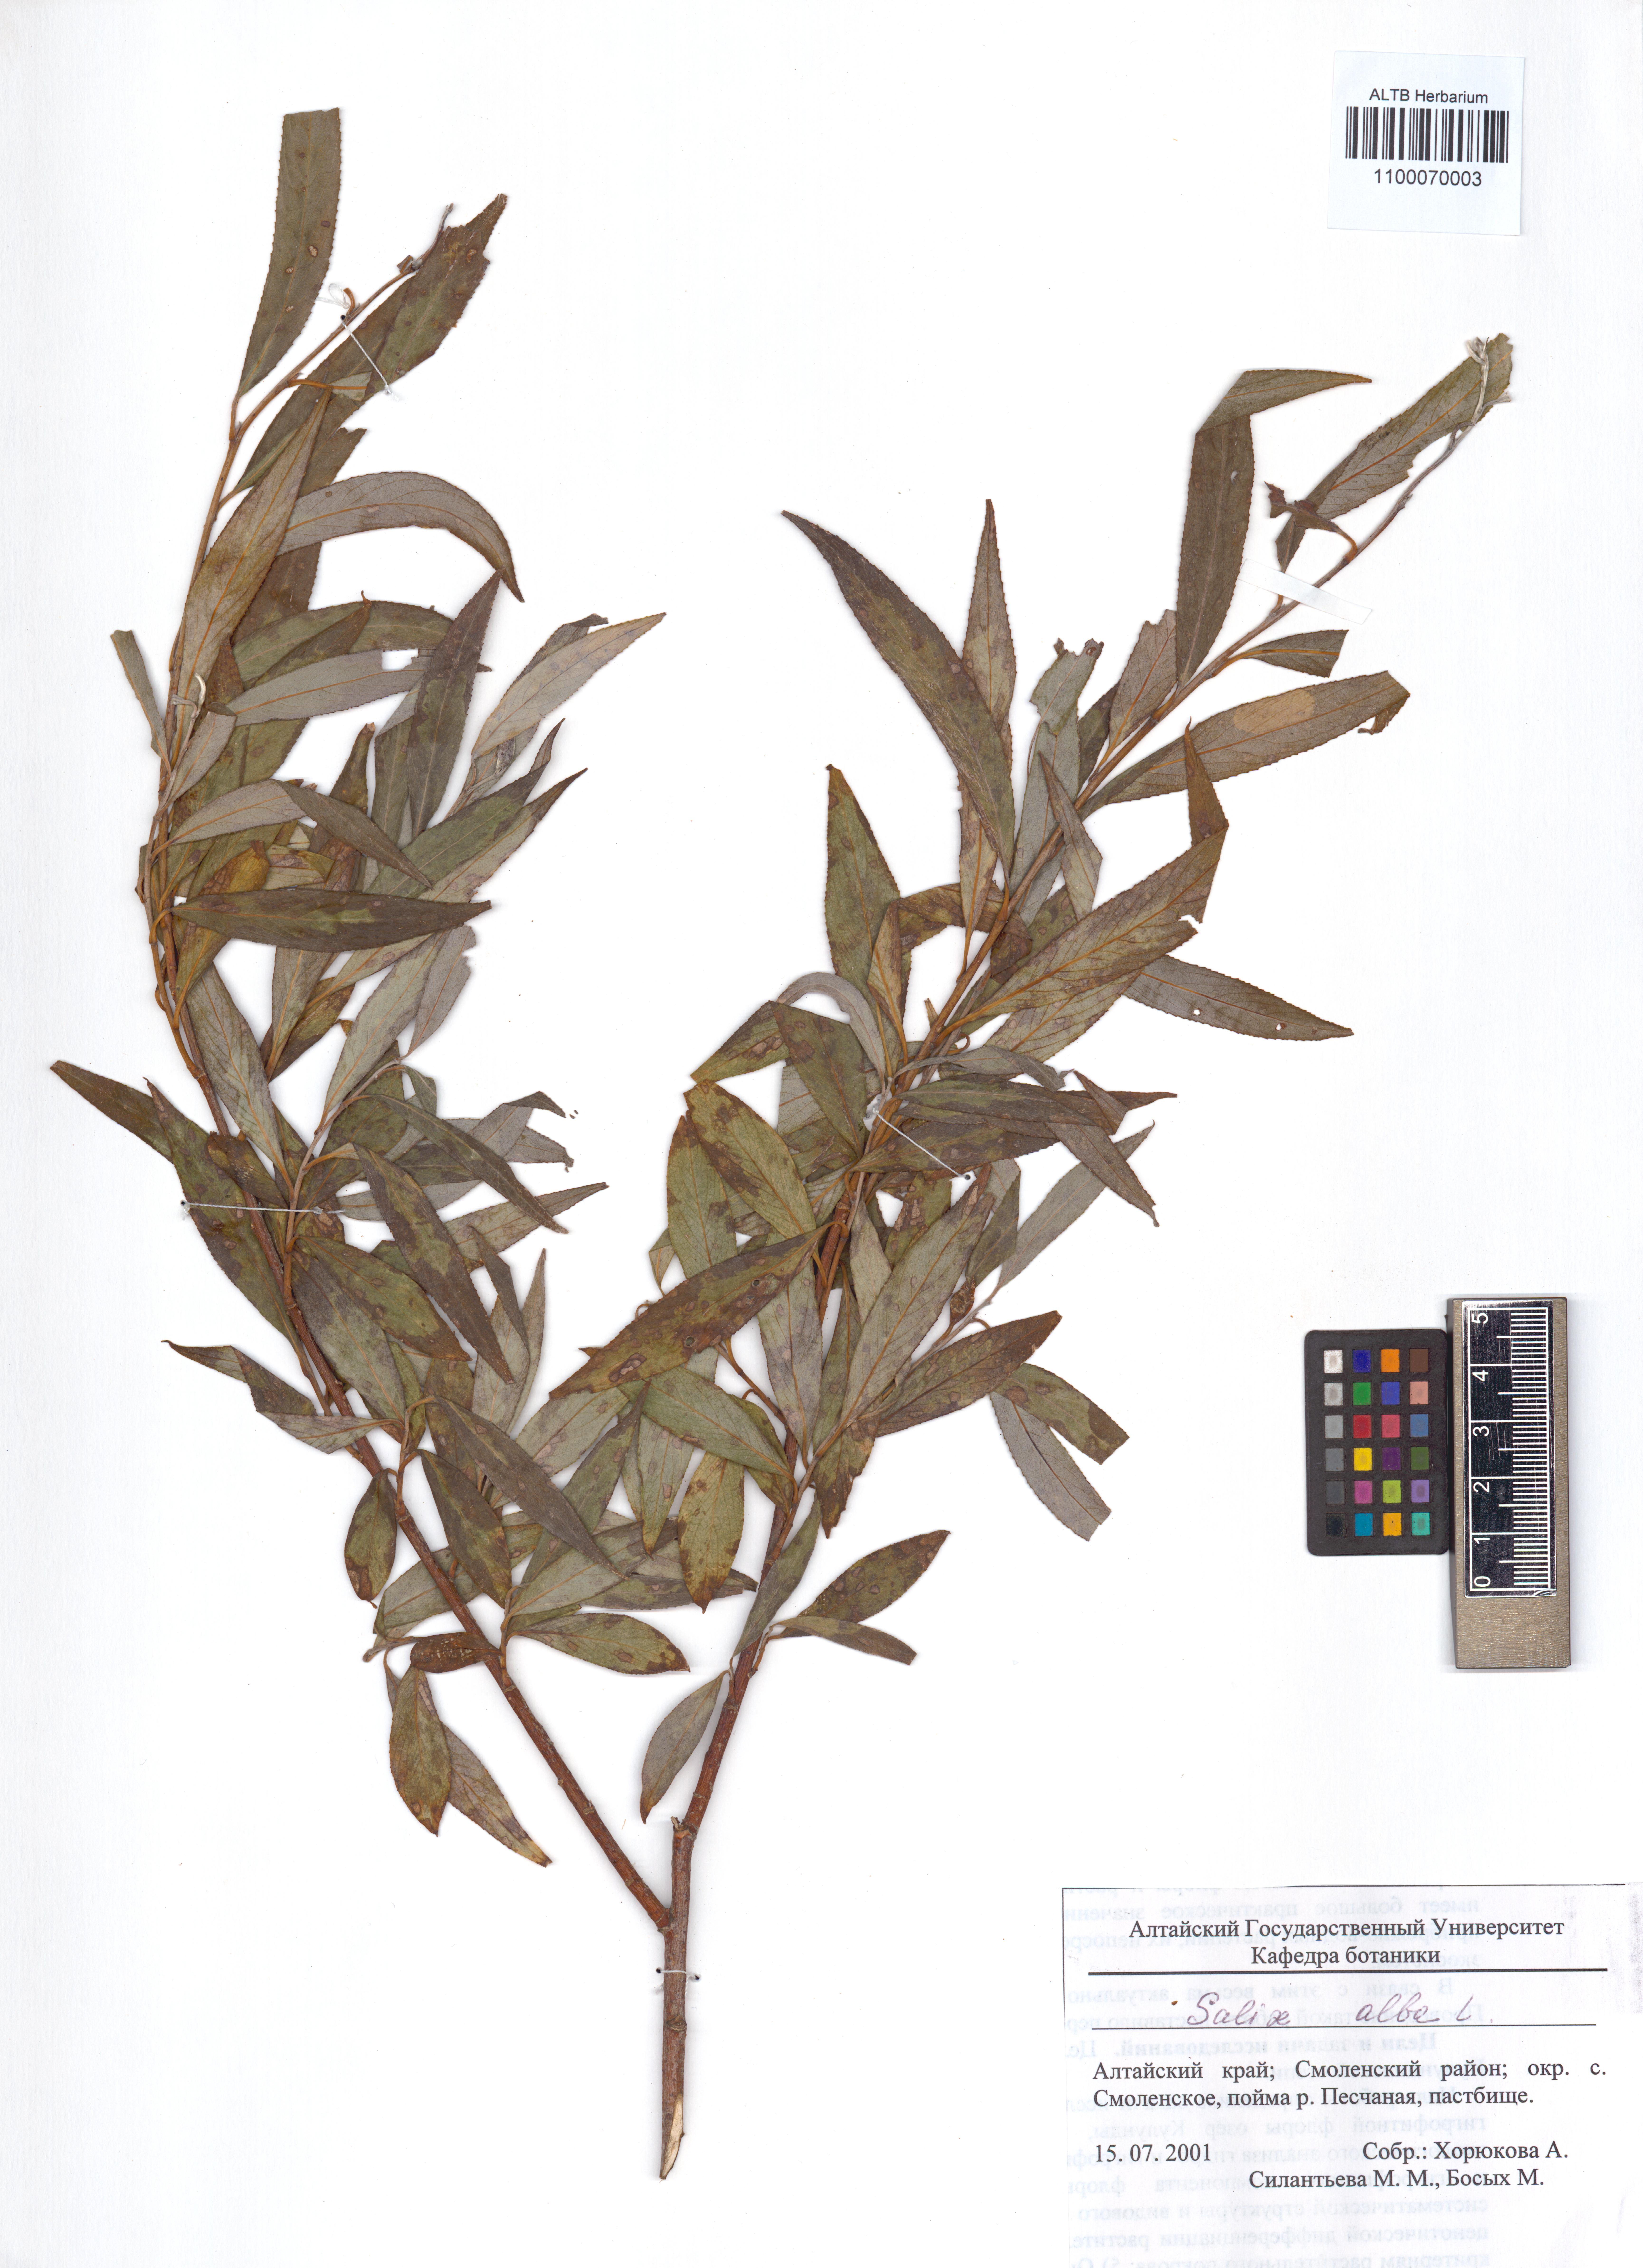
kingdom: Plantae
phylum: Tracheophyta
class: Magnoliopsida
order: Malpighiales
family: Salicaceae
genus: Salix
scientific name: Salix alba
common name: White willow
